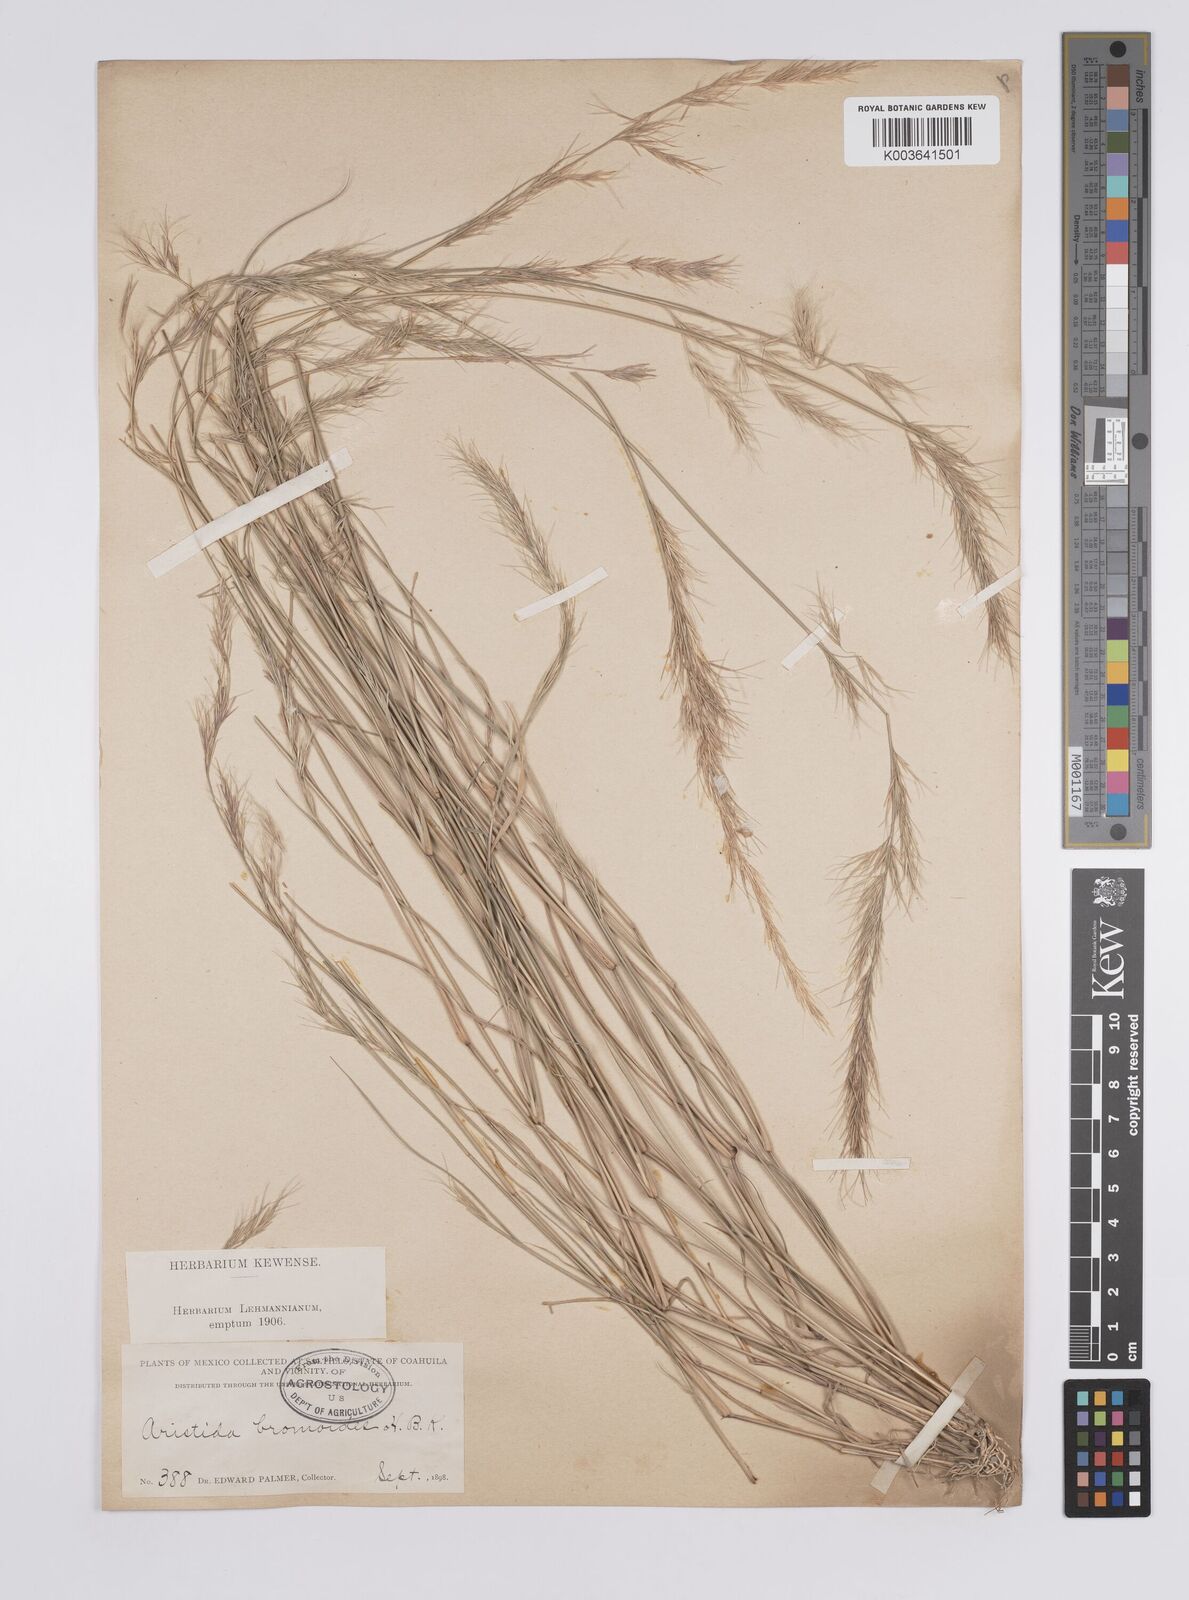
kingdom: Plantae
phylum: Tracheophyta
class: Liliopsida
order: Poales
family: Poaceae
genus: Aristida
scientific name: Aristida adscensionis
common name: Sixweeks threeawn
